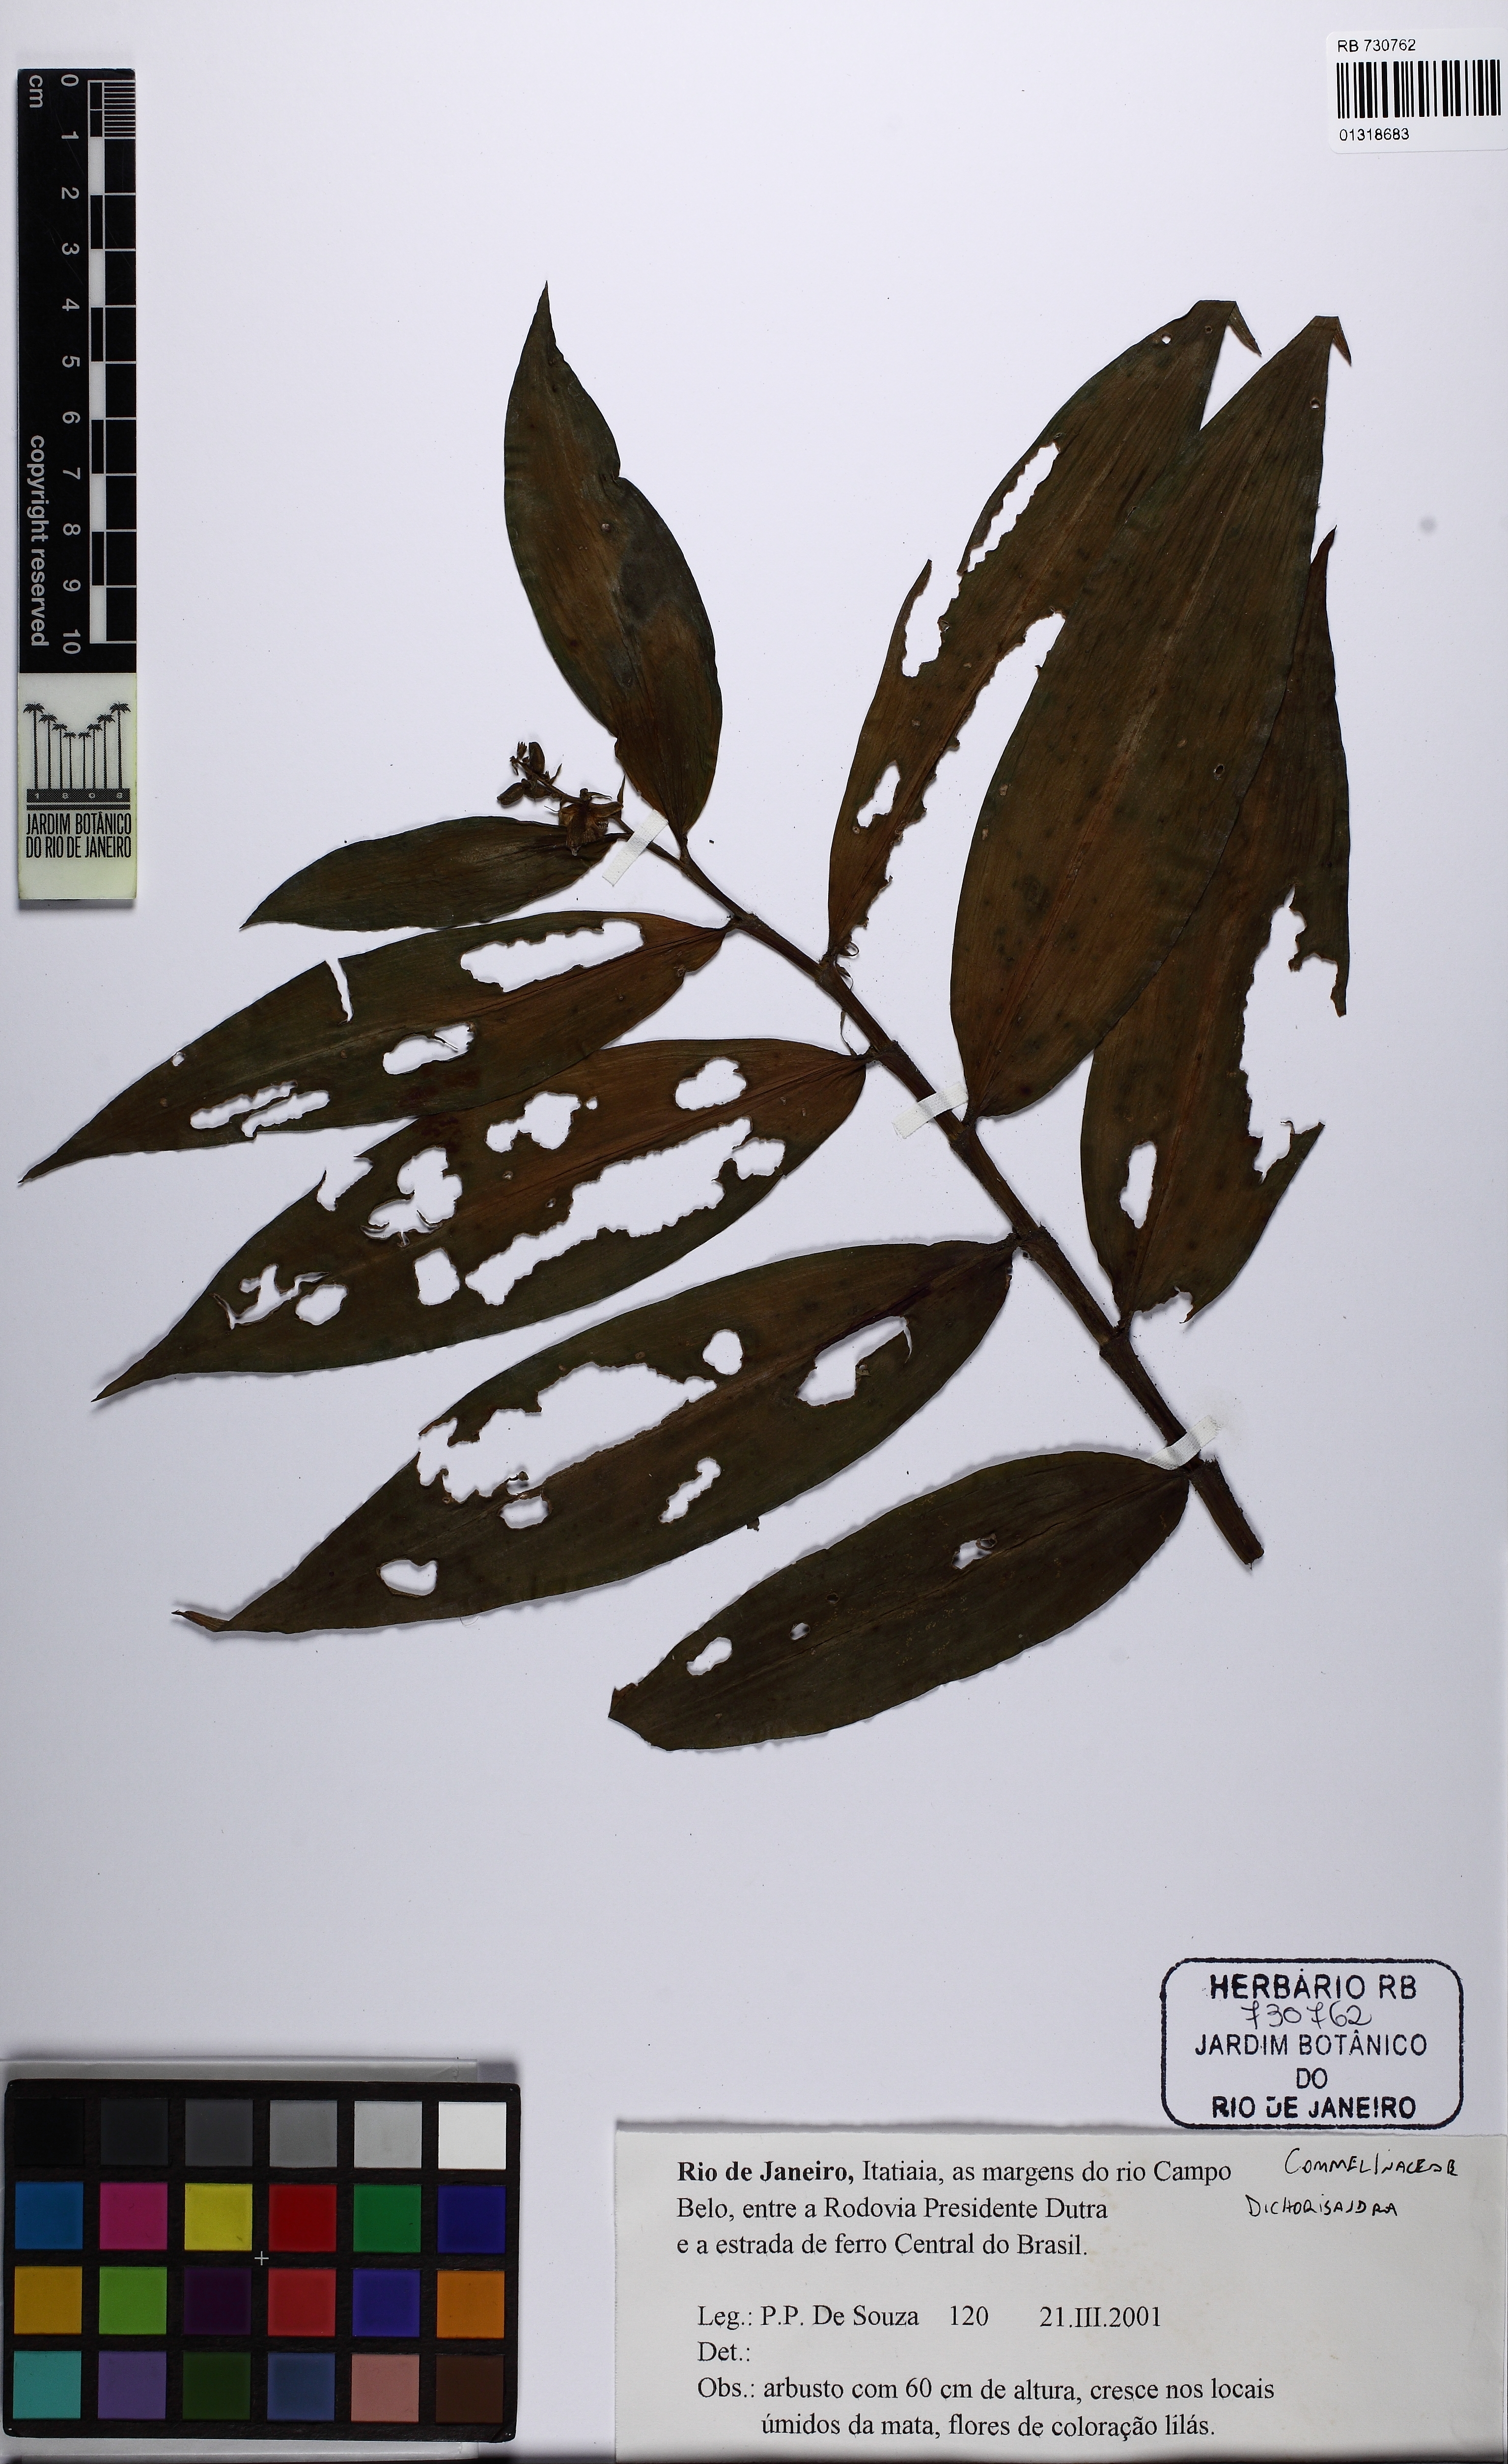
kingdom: Plantae
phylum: Tracheophyta
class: Liliopsida
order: Commelinales
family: Commelinaceae
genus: Dichorisandra
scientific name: Dichorisandra
